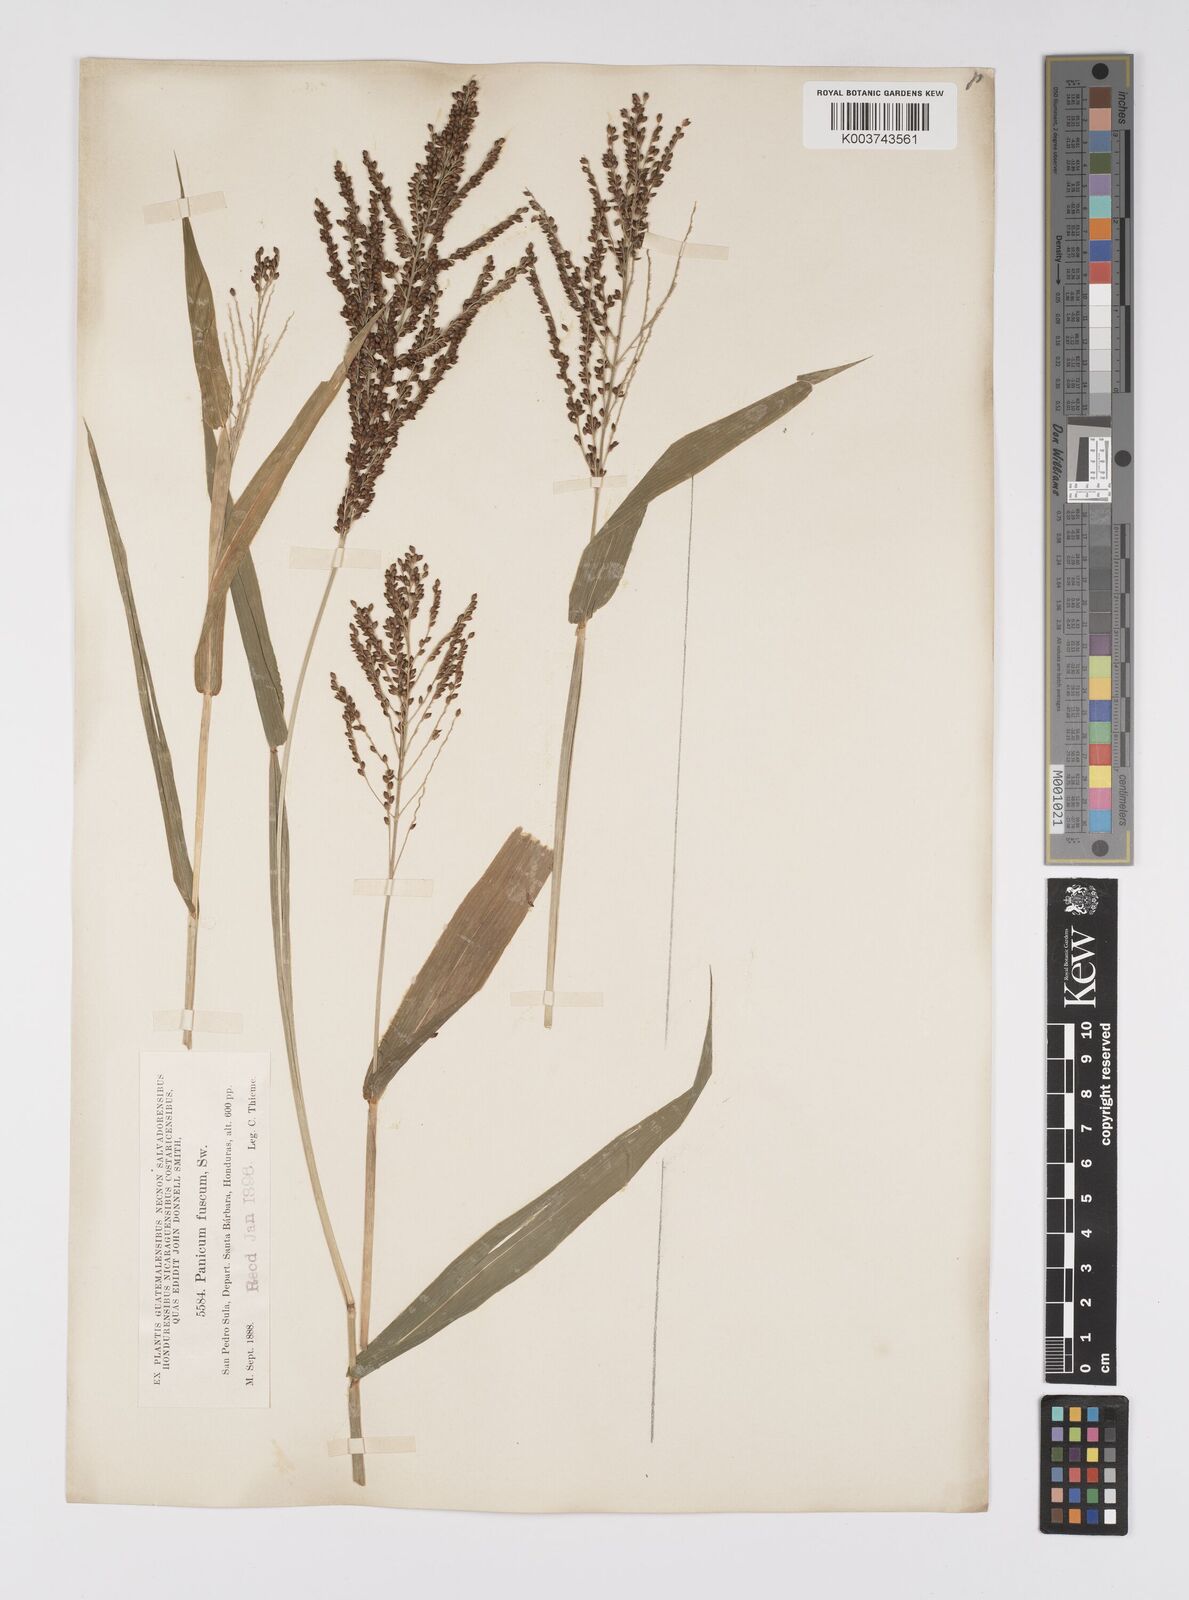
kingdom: Plantae
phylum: Tracheophyta
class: Liliopsida
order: Poales
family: Poaceae
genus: Urochloa
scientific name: Urochloa fusca
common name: Browntop signal grass
